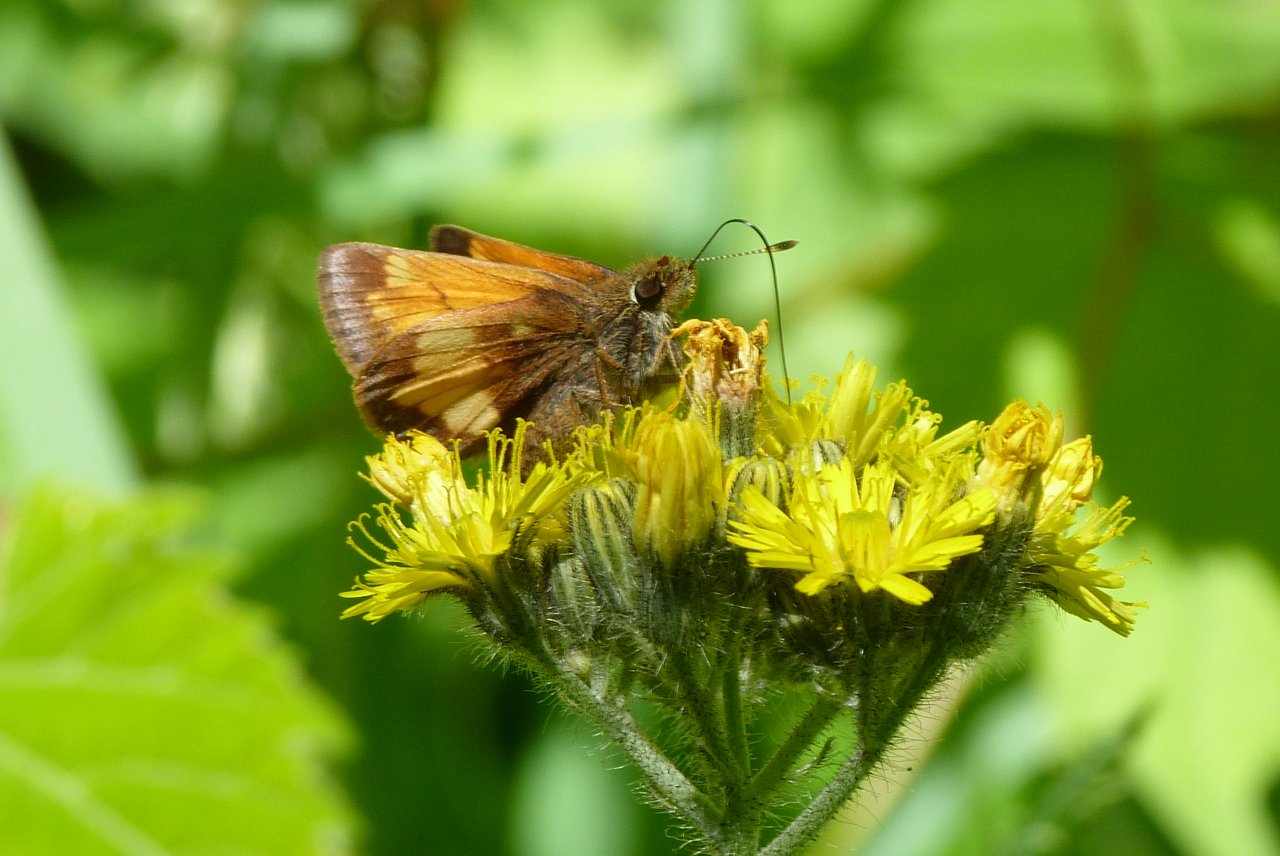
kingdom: Animalia
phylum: Arthropoda
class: Insecta
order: Lepidoptera
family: Hesperiidae
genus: Lon
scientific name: Lon hobomok
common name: Hobomok Skipper
